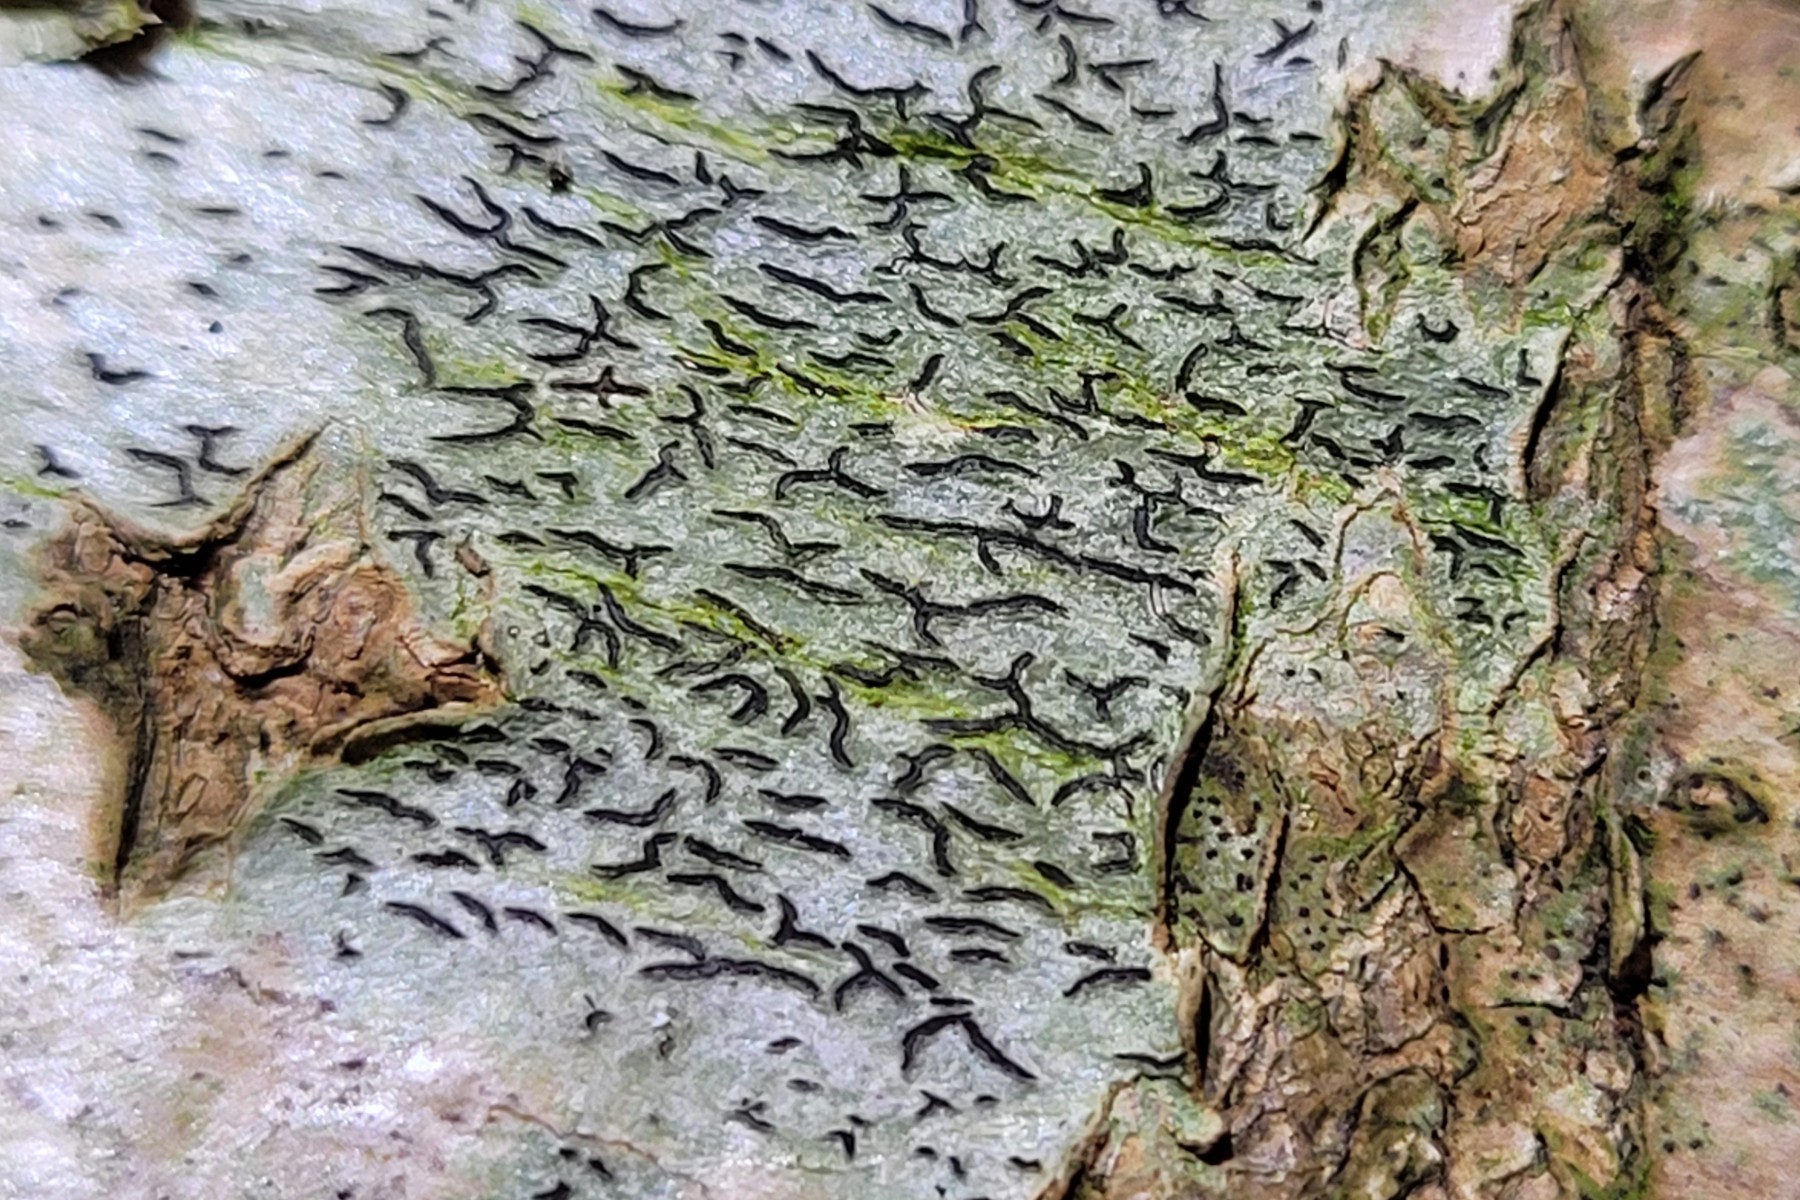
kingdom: Fungi
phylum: Ascomycota
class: Lecanoromycetes
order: Ostropales
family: Graphidaceae
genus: Graphis
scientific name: Graphis scripta
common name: almindelig skriftlav
